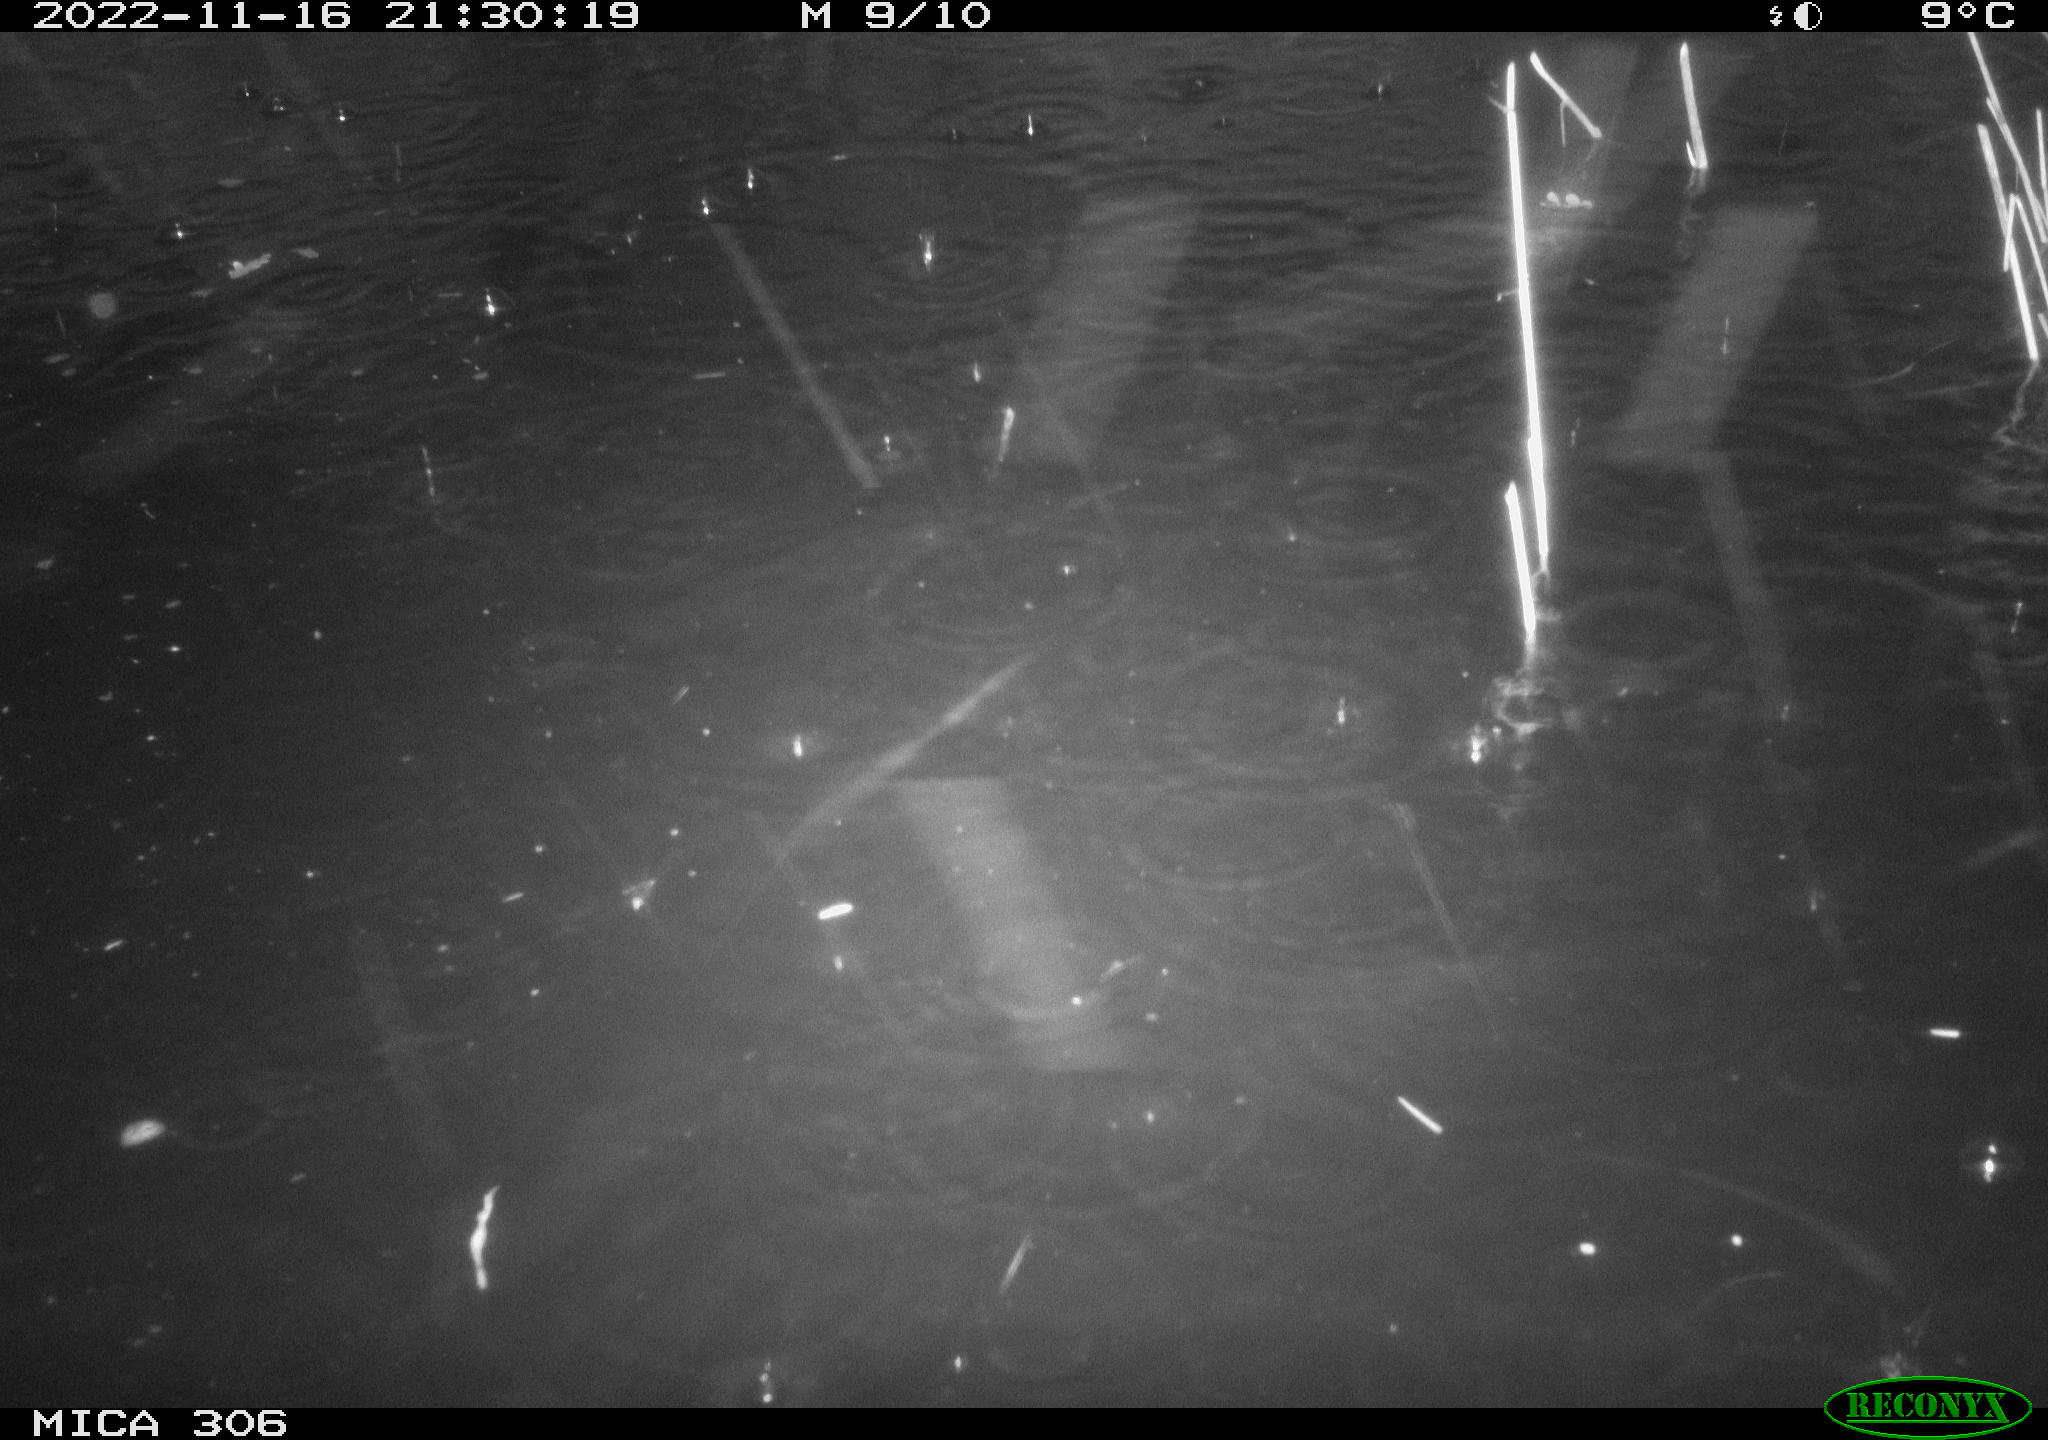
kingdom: Animalia
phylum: Chordata
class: Mammalia
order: Rodentia
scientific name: Rodentia
